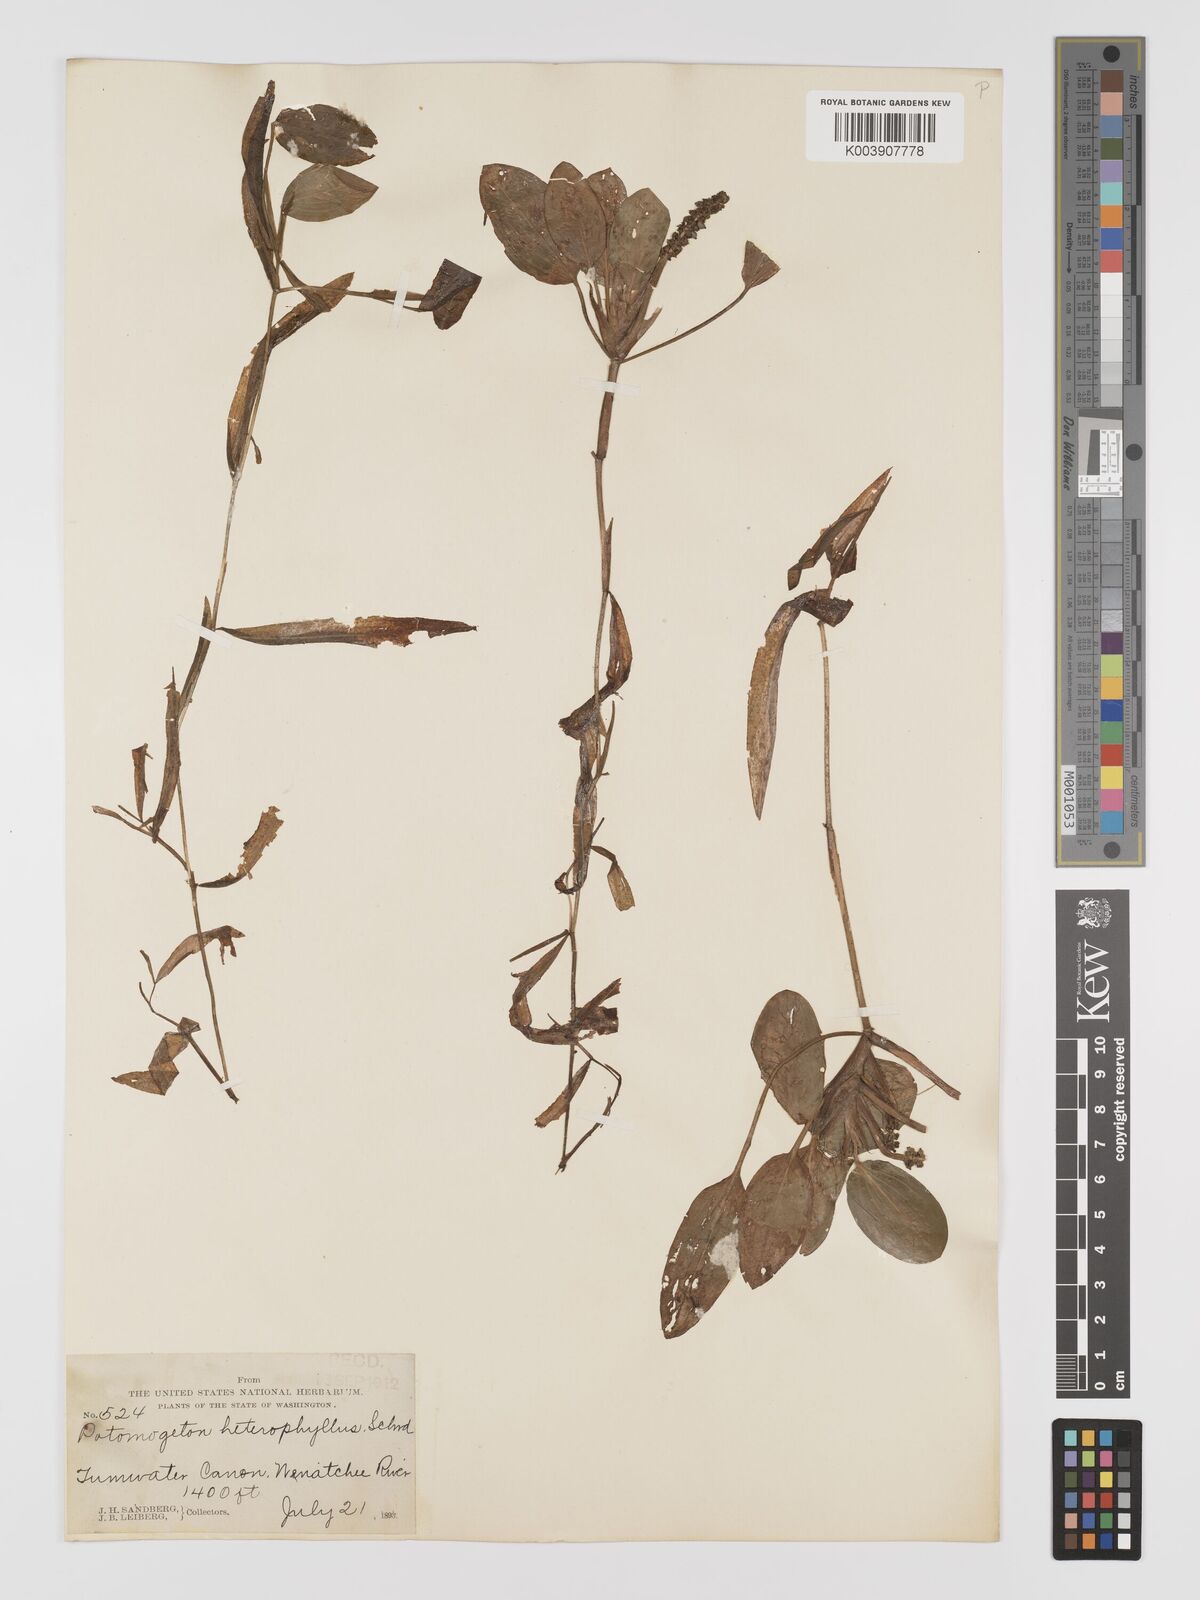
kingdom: Plantae
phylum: Tracheophyta
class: Liliopsida
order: Alismatales
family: Potamogetonaceae
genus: Potamogeton
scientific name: Potamogeton gramineus
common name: Various-leaved pondweed
